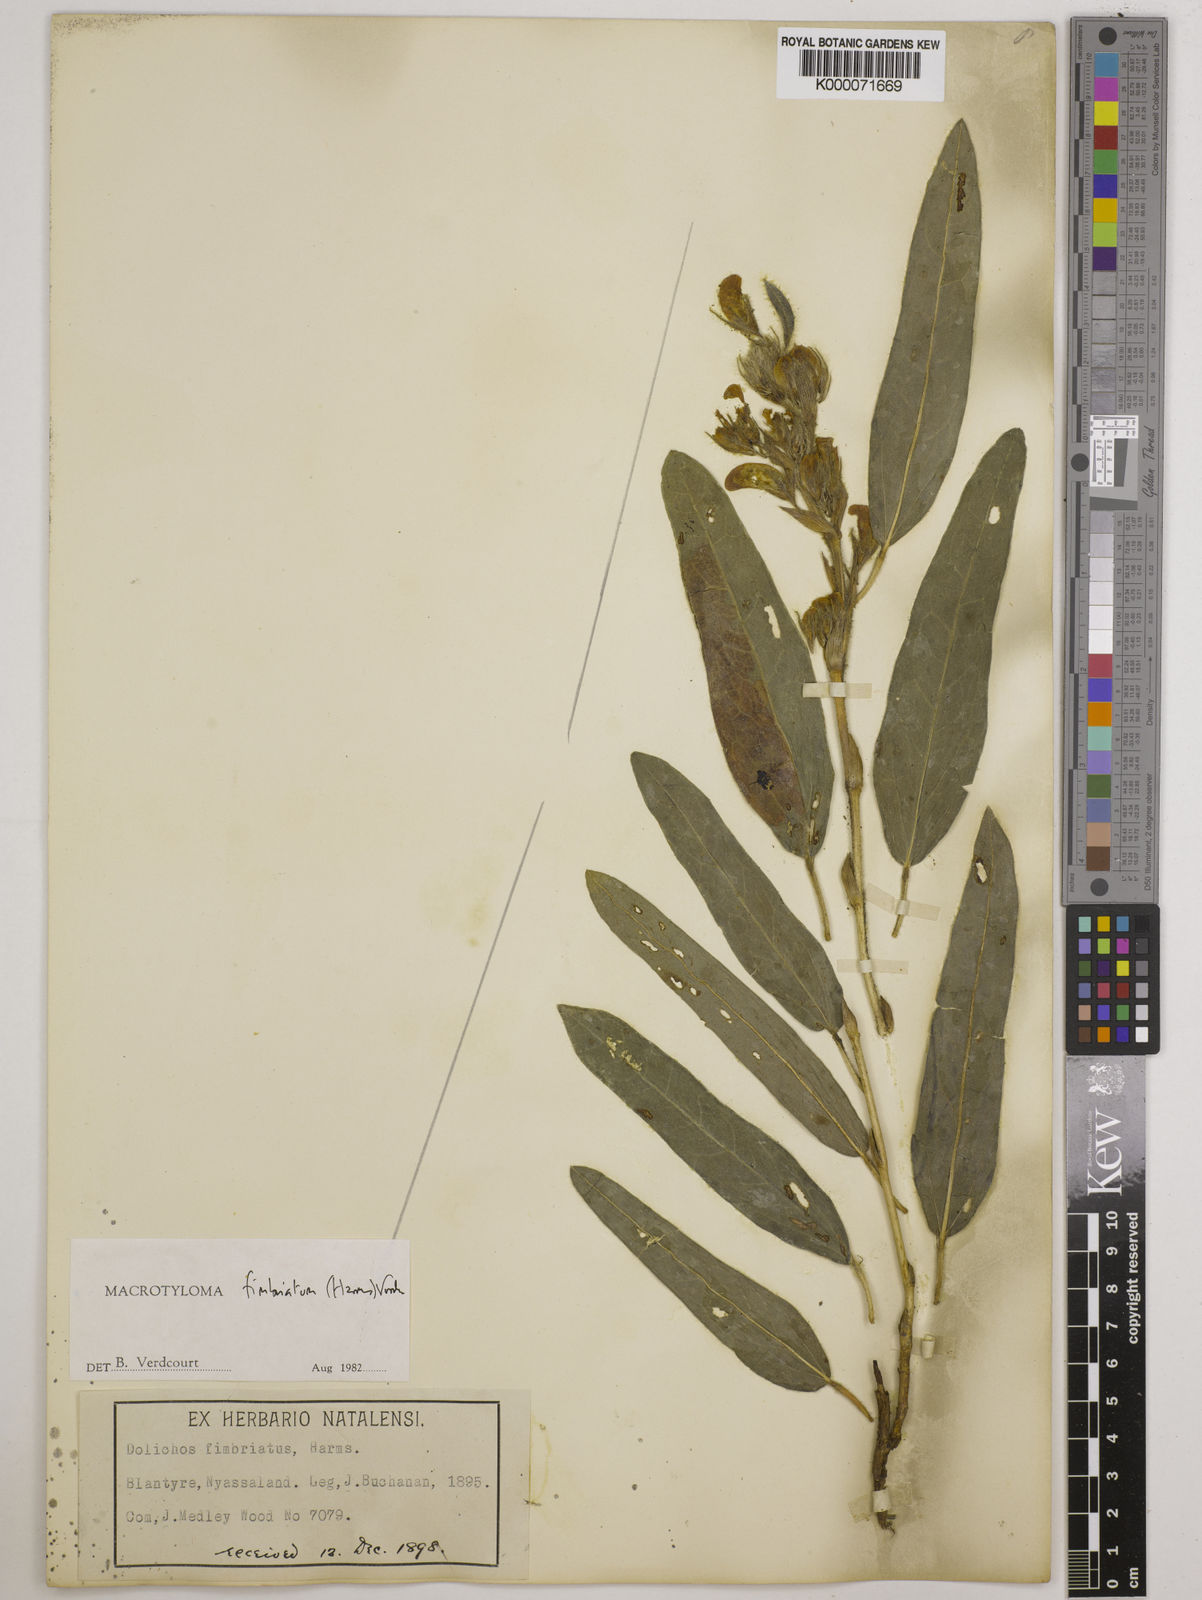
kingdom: Plantae
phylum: Tracheophyta
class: Magnoliopsida
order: Fabales
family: Fabaceae
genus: Macrotyloma
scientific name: Macrotyloma fimbriatum
